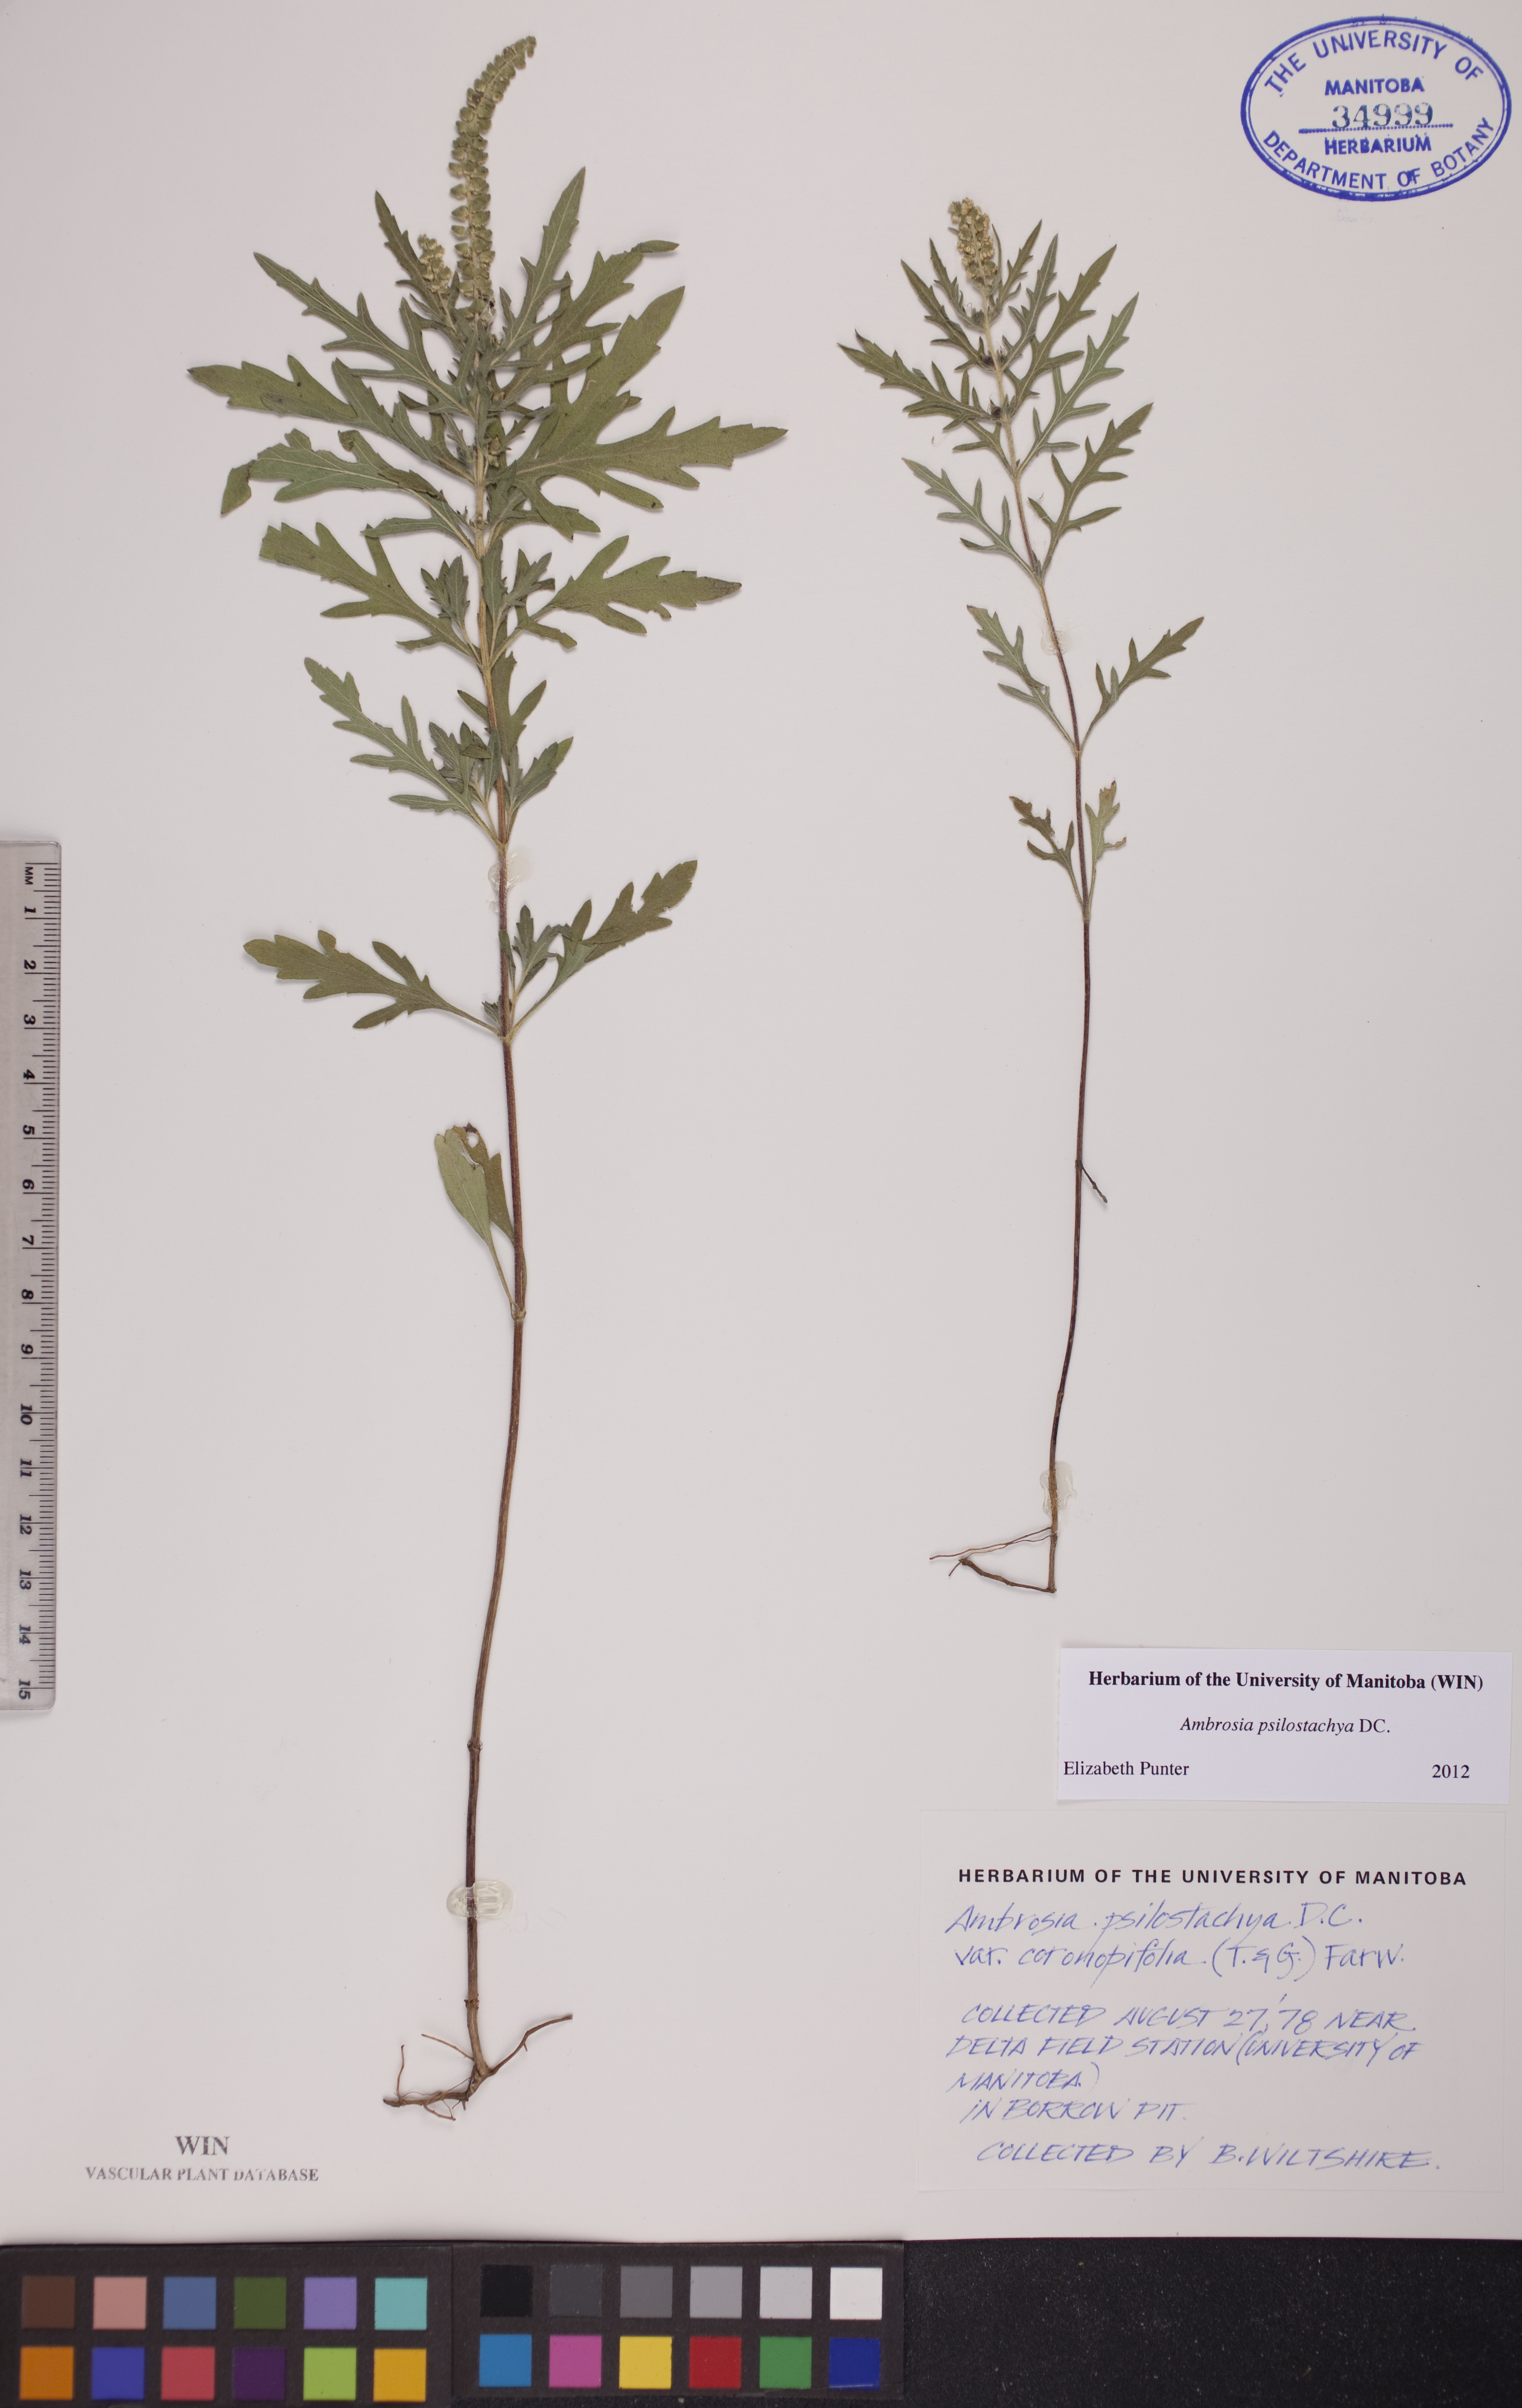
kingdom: Plantae
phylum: Tracheophyta
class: Magnoliopsida
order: Asterales
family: Asteraceae
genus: Ambrosia
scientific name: Ambrosia psilostachya
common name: Perennial ragweed
